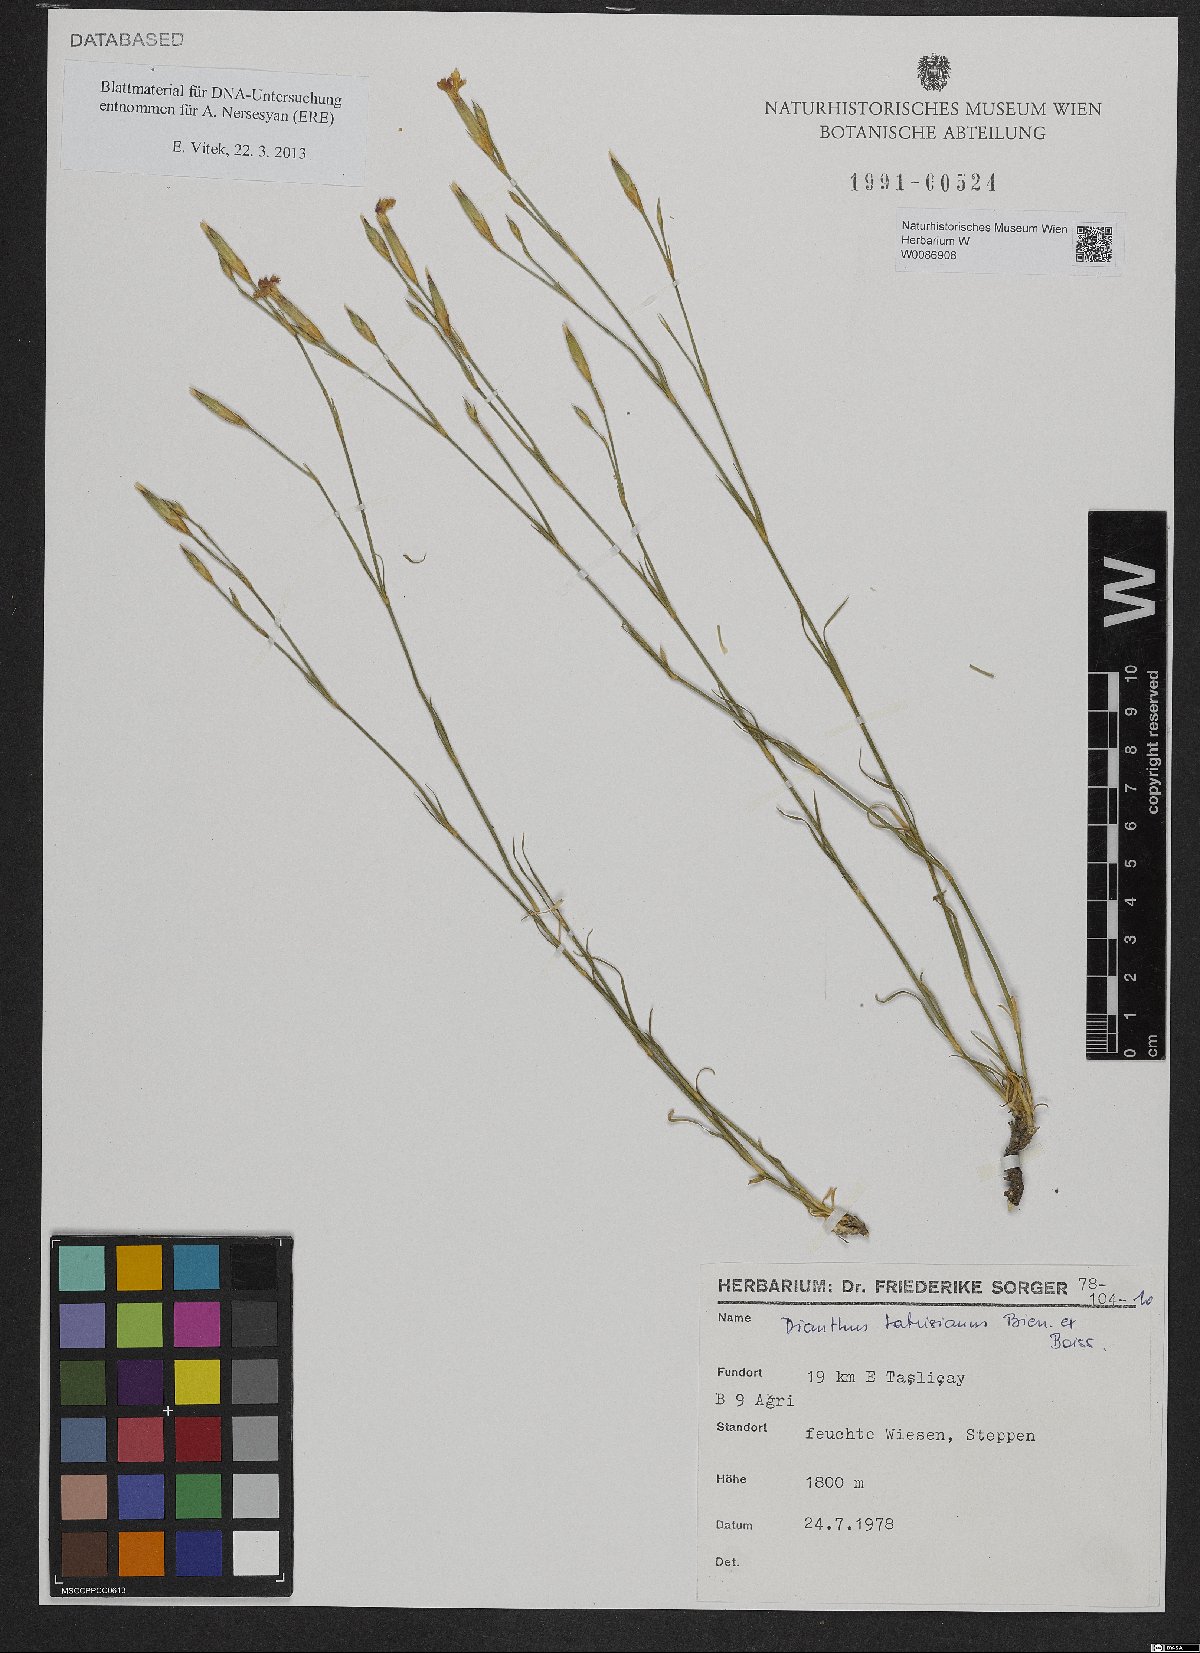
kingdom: Plantae
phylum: Tracheophyta
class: Magnoliopsida
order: Caryophyllales
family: Caryophyllaceae
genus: Dianthus
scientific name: Dianthus tabrisianus
